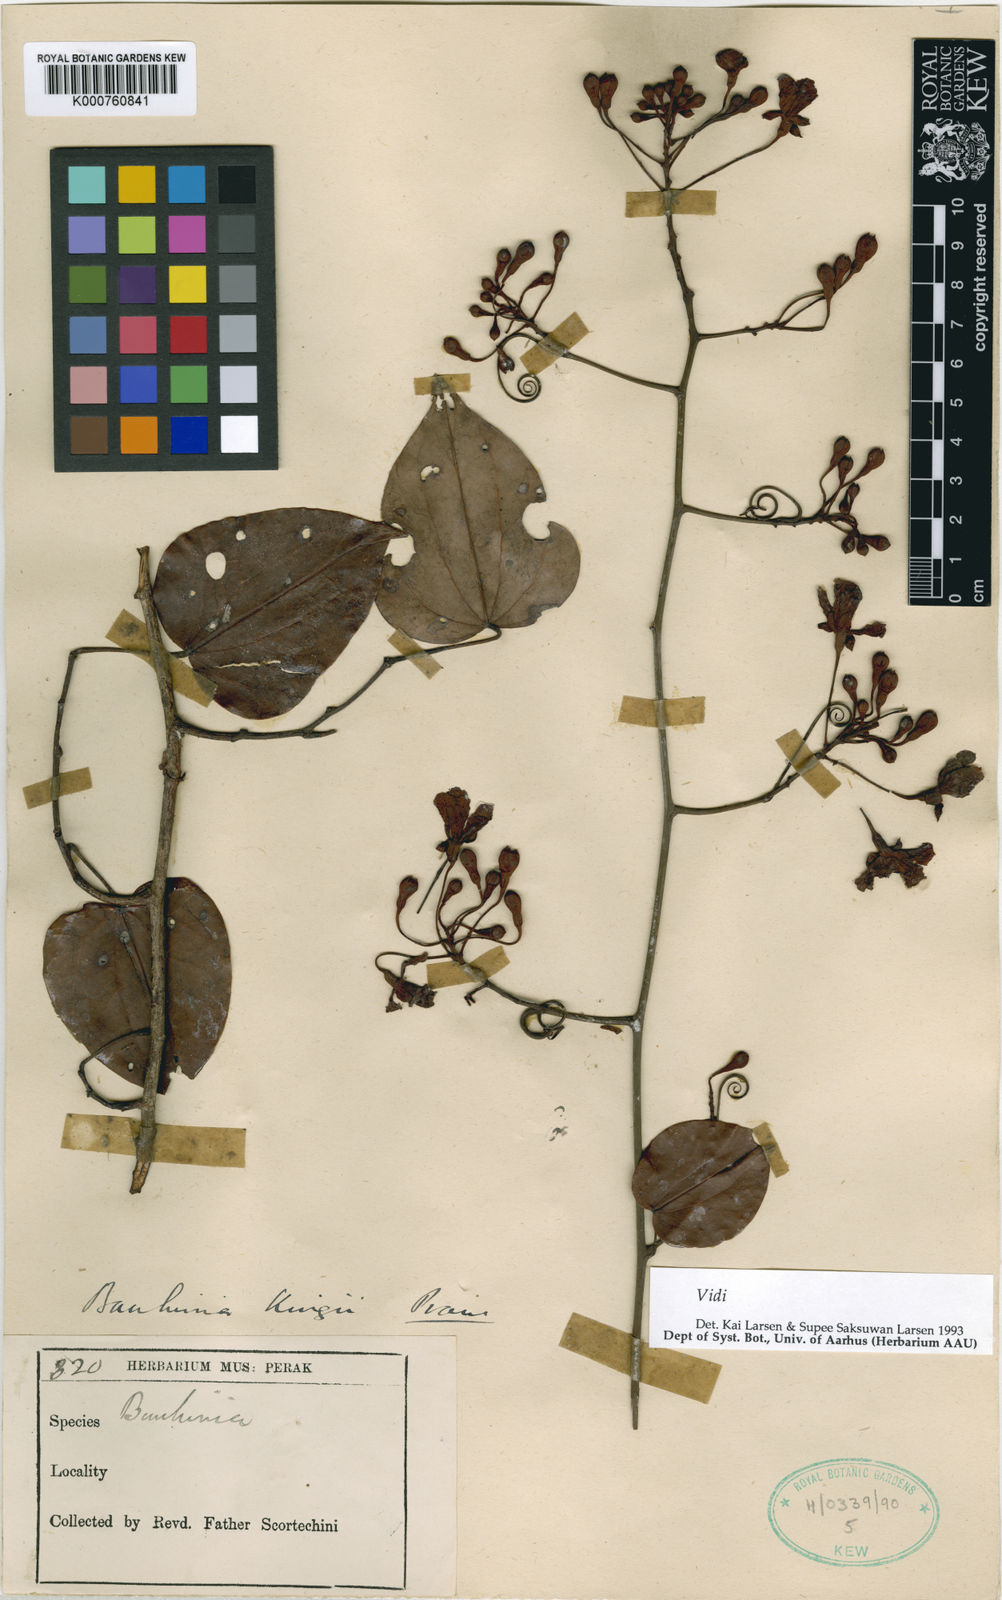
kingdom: Plantae
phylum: Tracheophyta
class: Magnoliopsida
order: Fabales
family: Fabaceae
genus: Bauhinia
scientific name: Bauhinia
